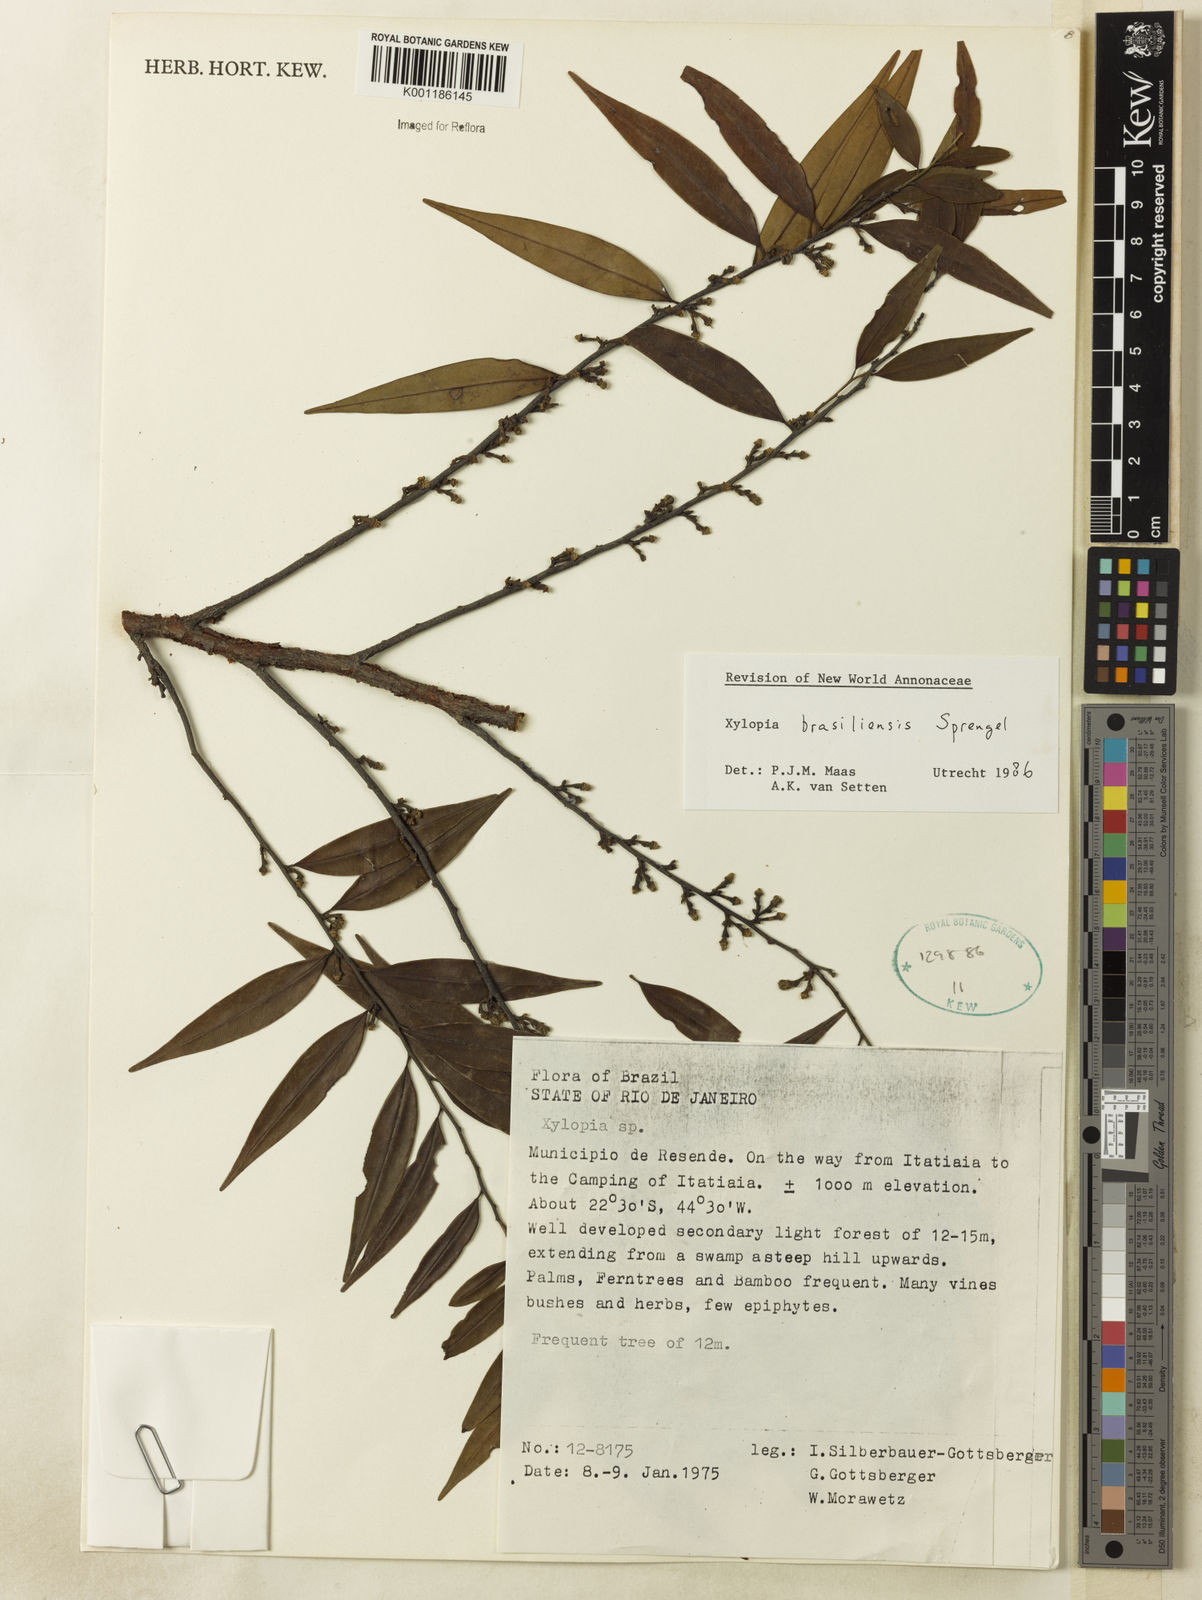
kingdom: Plantae
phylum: Tracheophyta
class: Magnoliopsida
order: Magnoliales
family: Annonaceae
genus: Xylopia
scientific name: Xylopia brasiliensis
